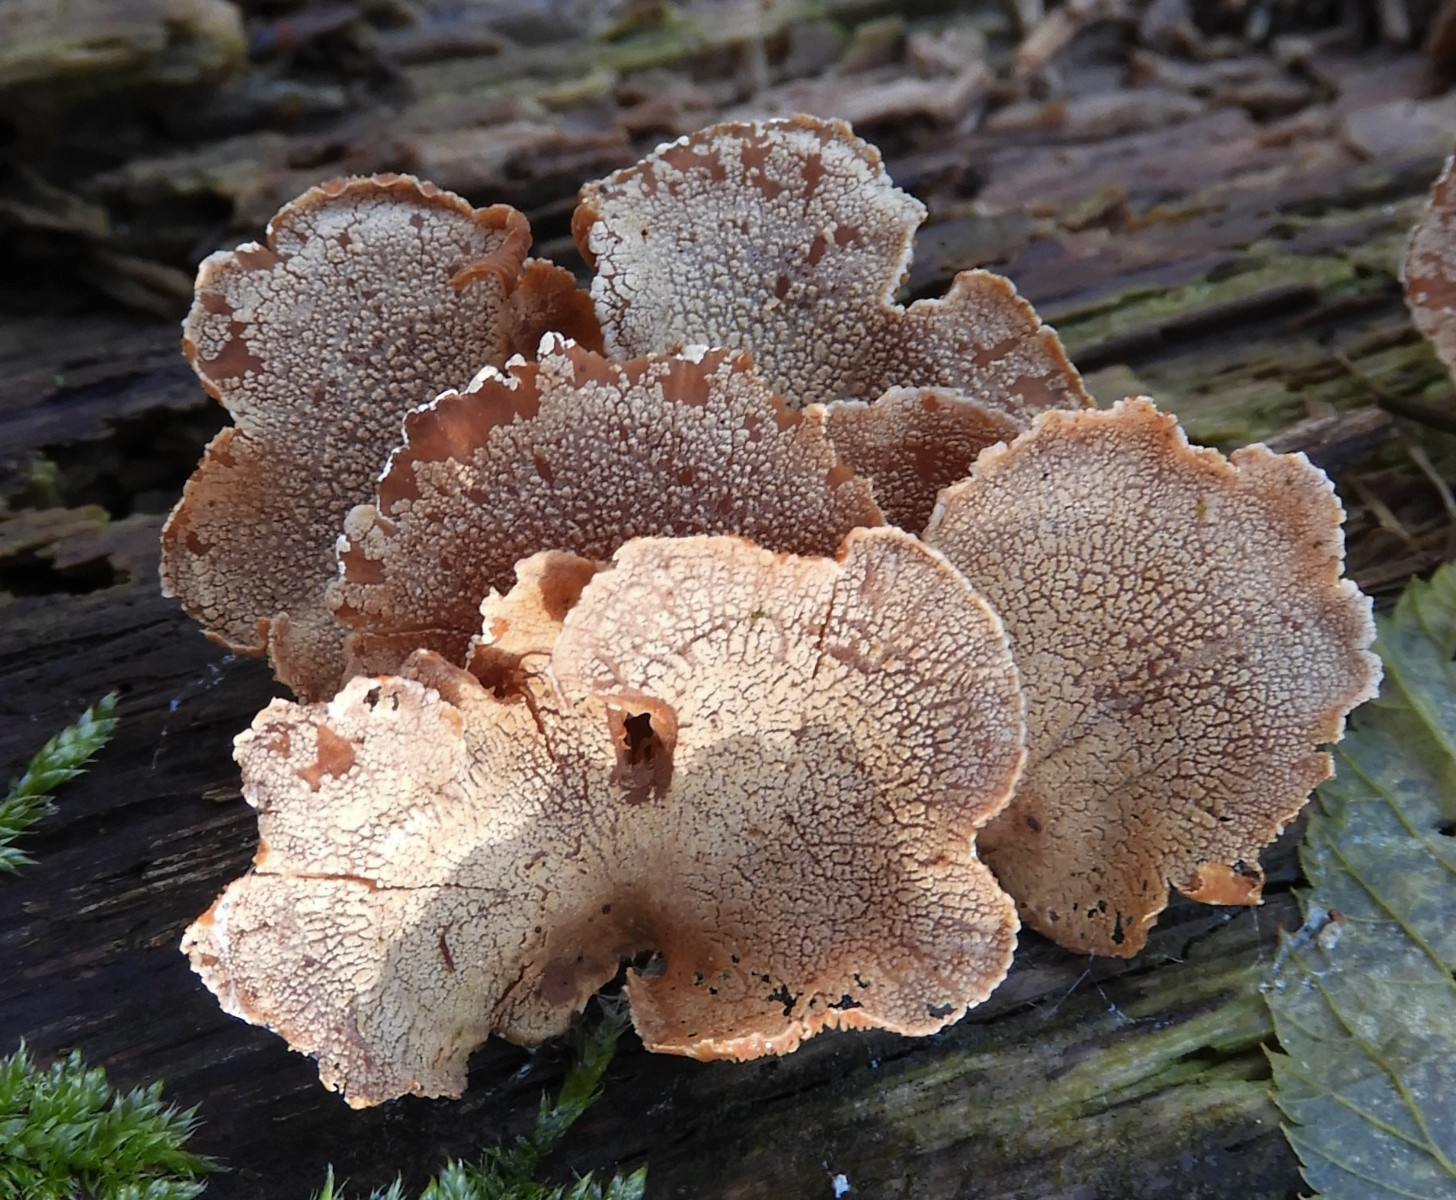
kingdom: Fungi
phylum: Basidiomycota
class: Agaricomycetes
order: Agaricales
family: Mycenaceae
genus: Panellus
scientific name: Panellus stipticus
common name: kliddet epaulethat
